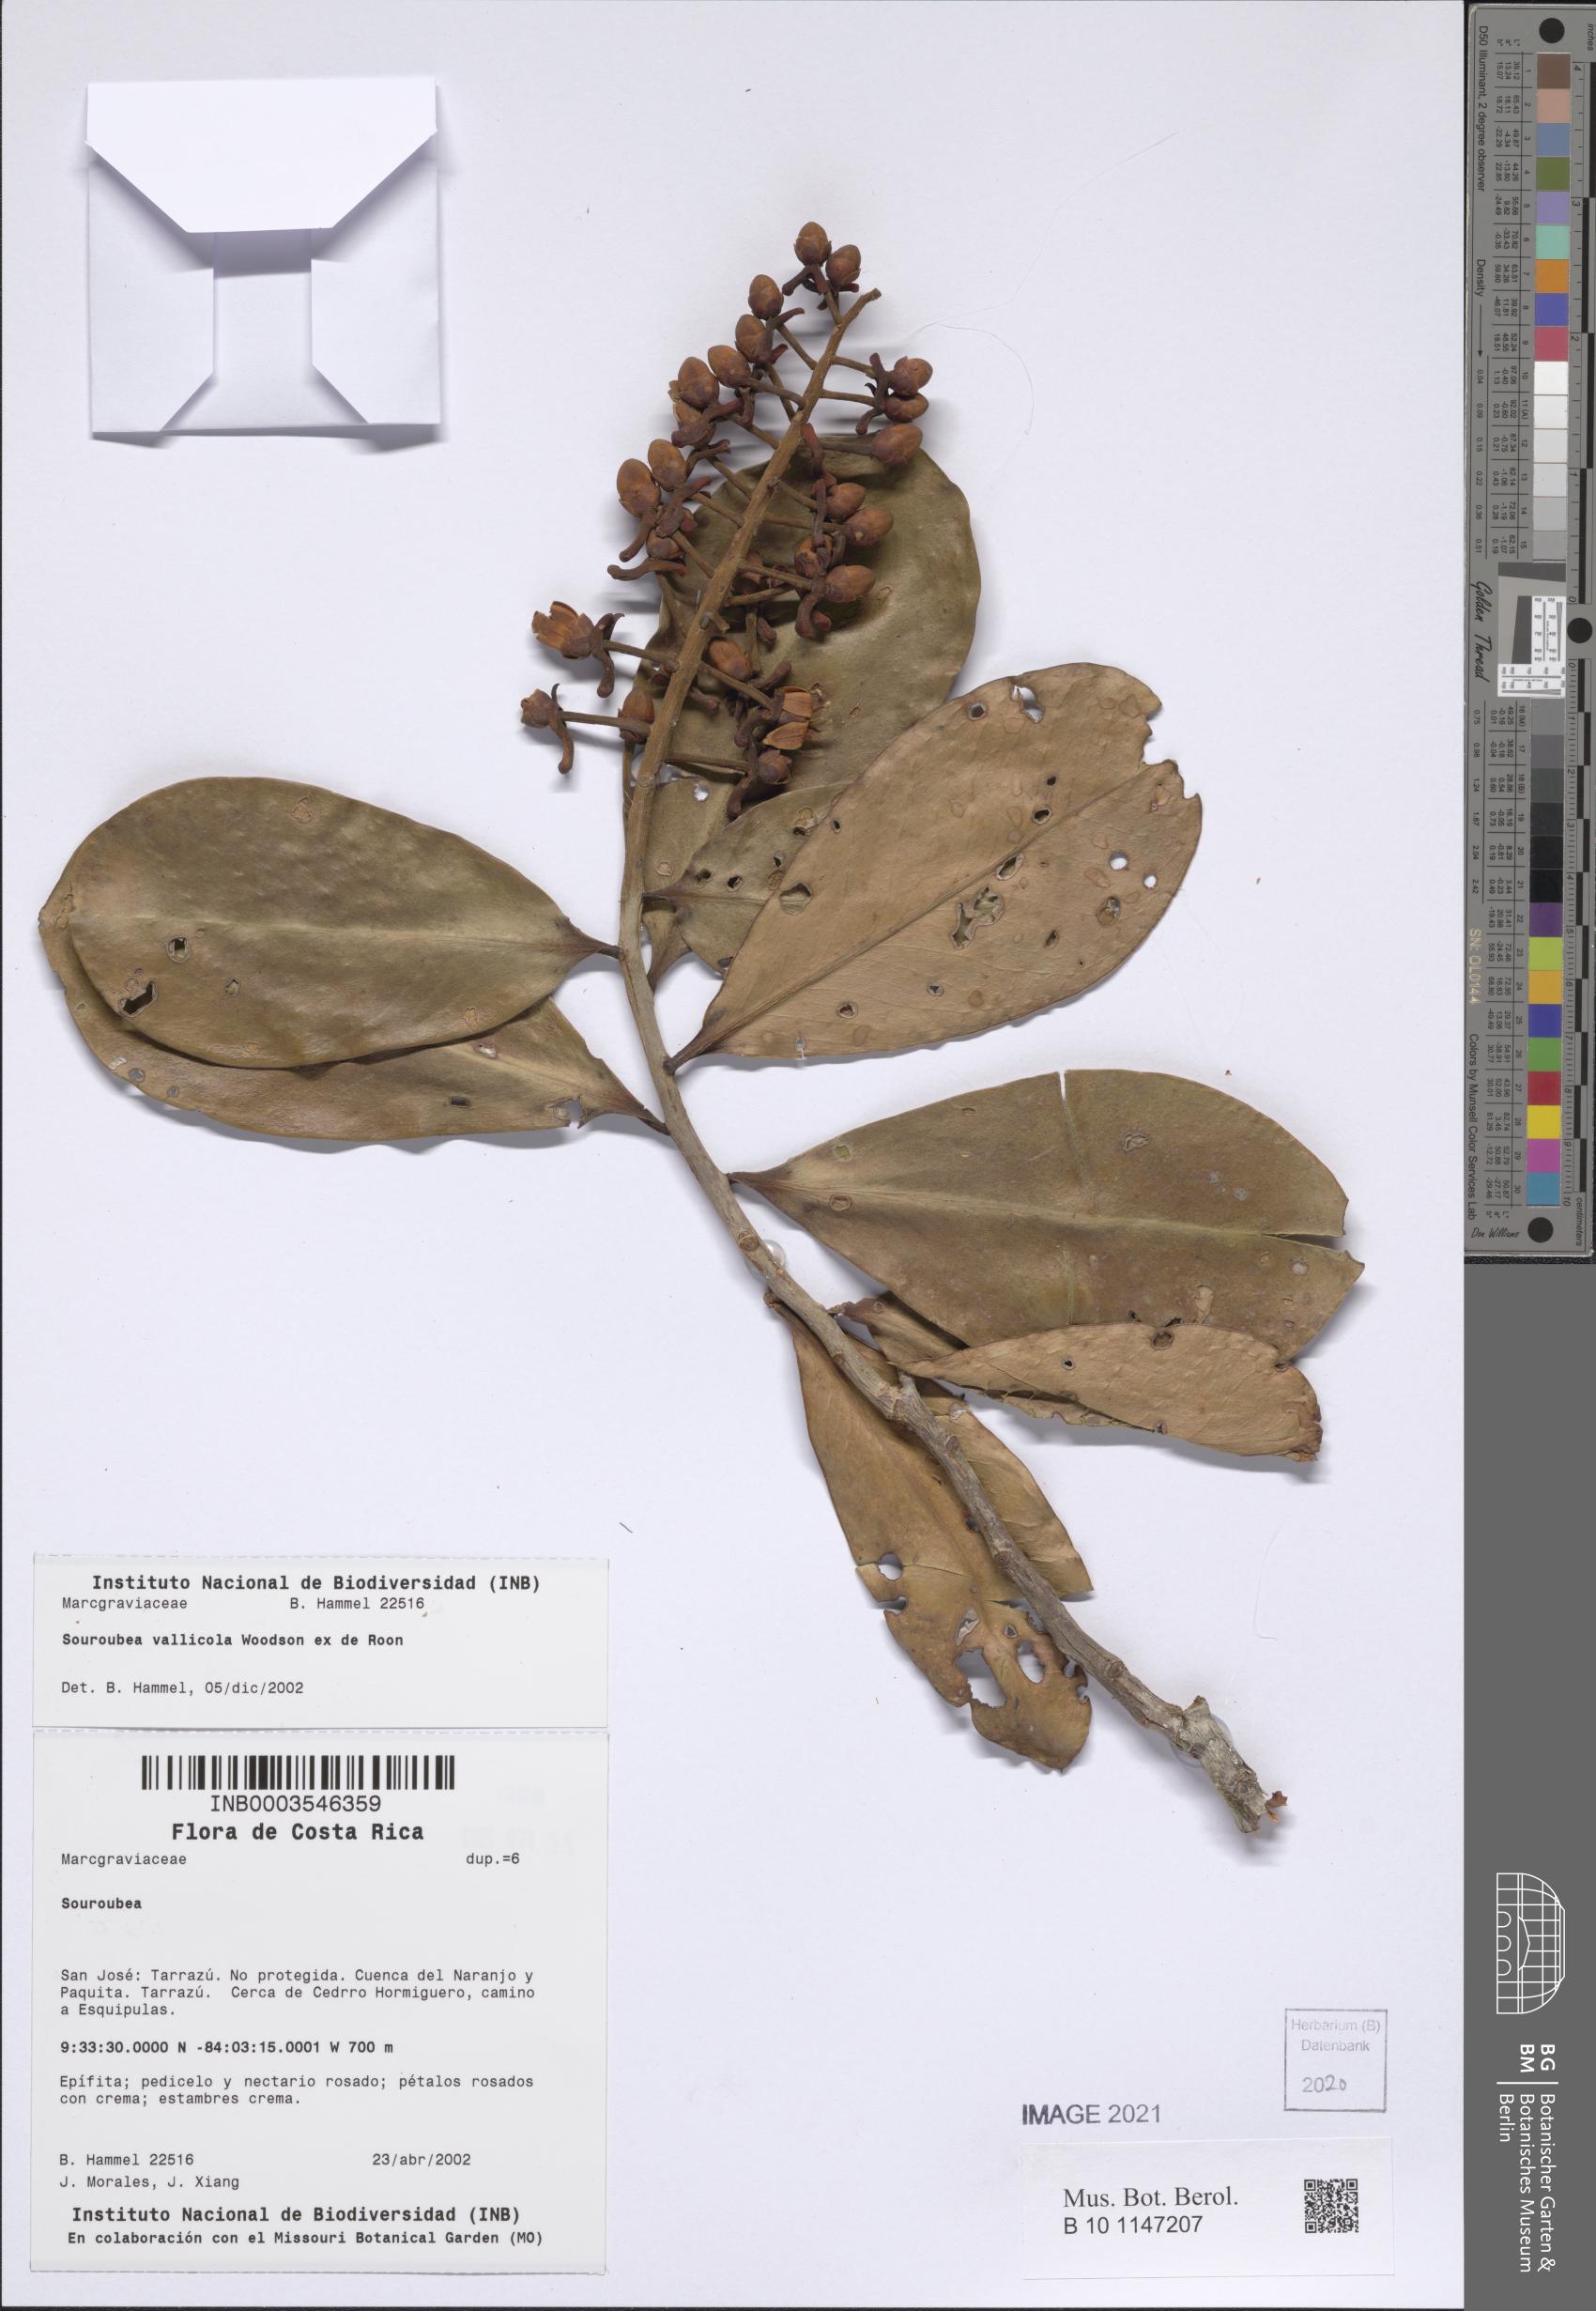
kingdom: Plantae
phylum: Tracheophyta
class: Magnoliopsida
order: Ericales
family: Marcgraviaceae
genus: Souroubea
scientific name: Souroubea vallicola
